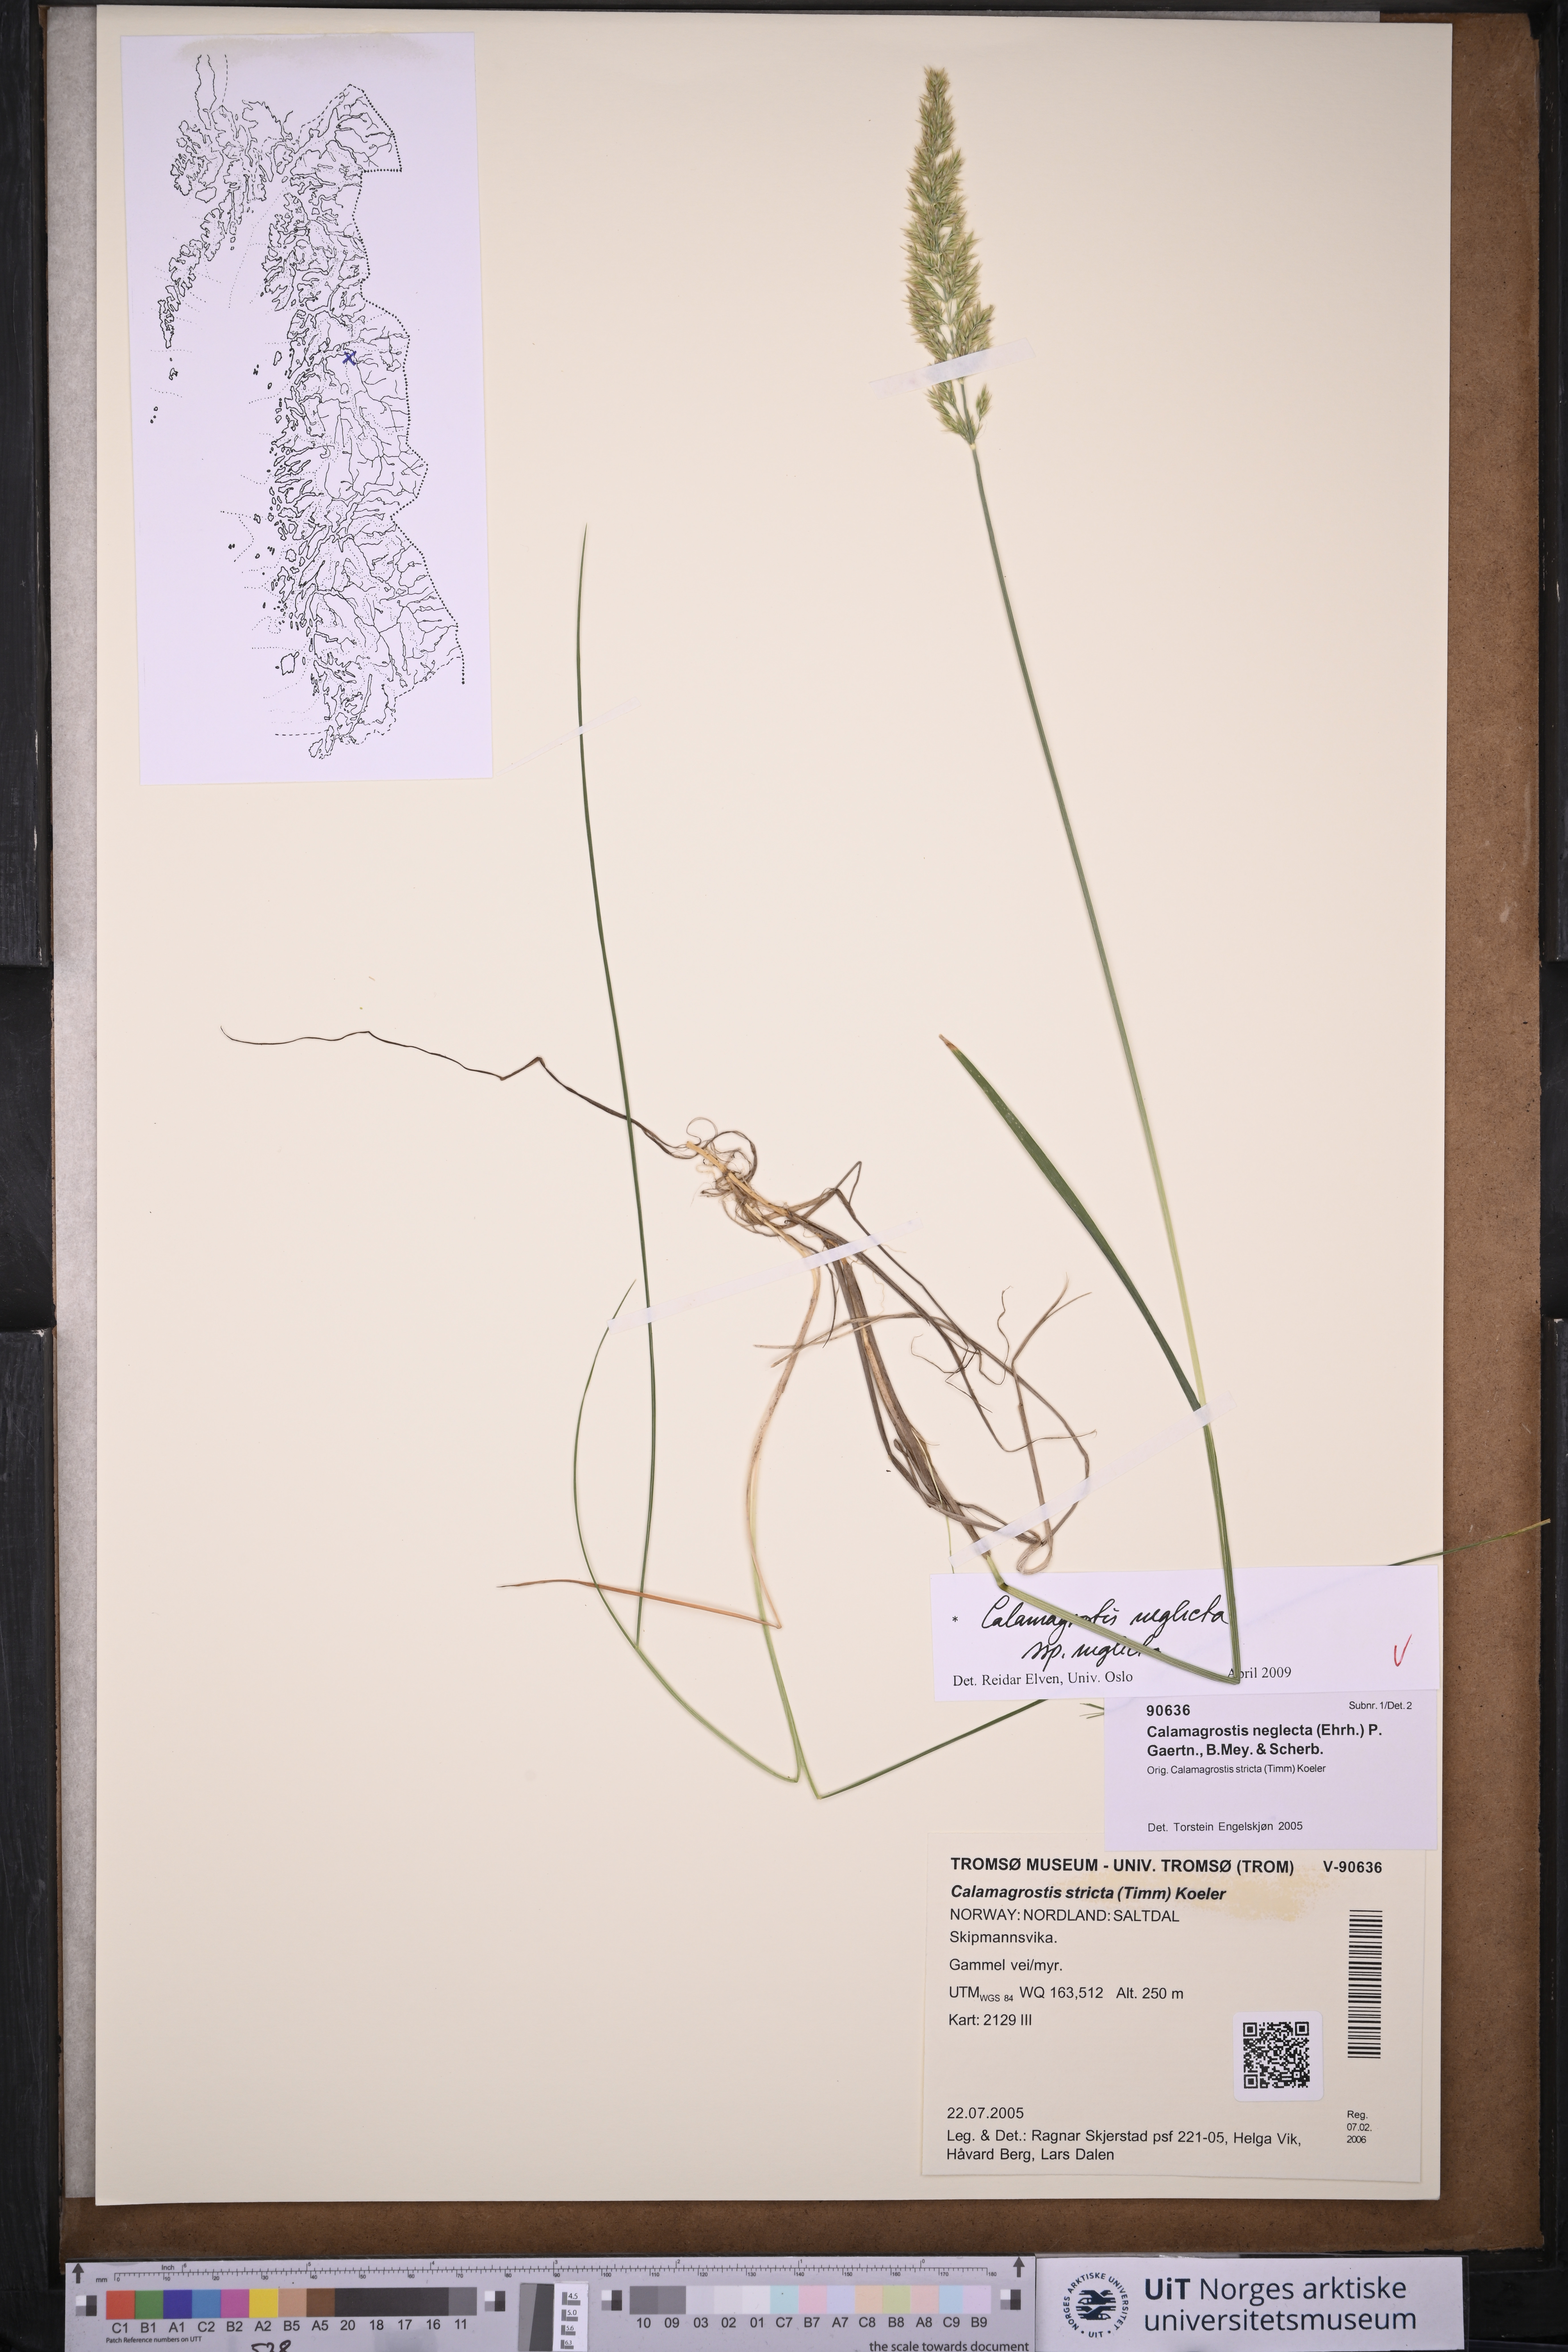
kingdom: Plantae
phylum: Tracheophyta
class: Liliopsida
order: Poales
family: Poaceae
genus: Achnatherum
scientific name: Achnatherum calamagrostis
